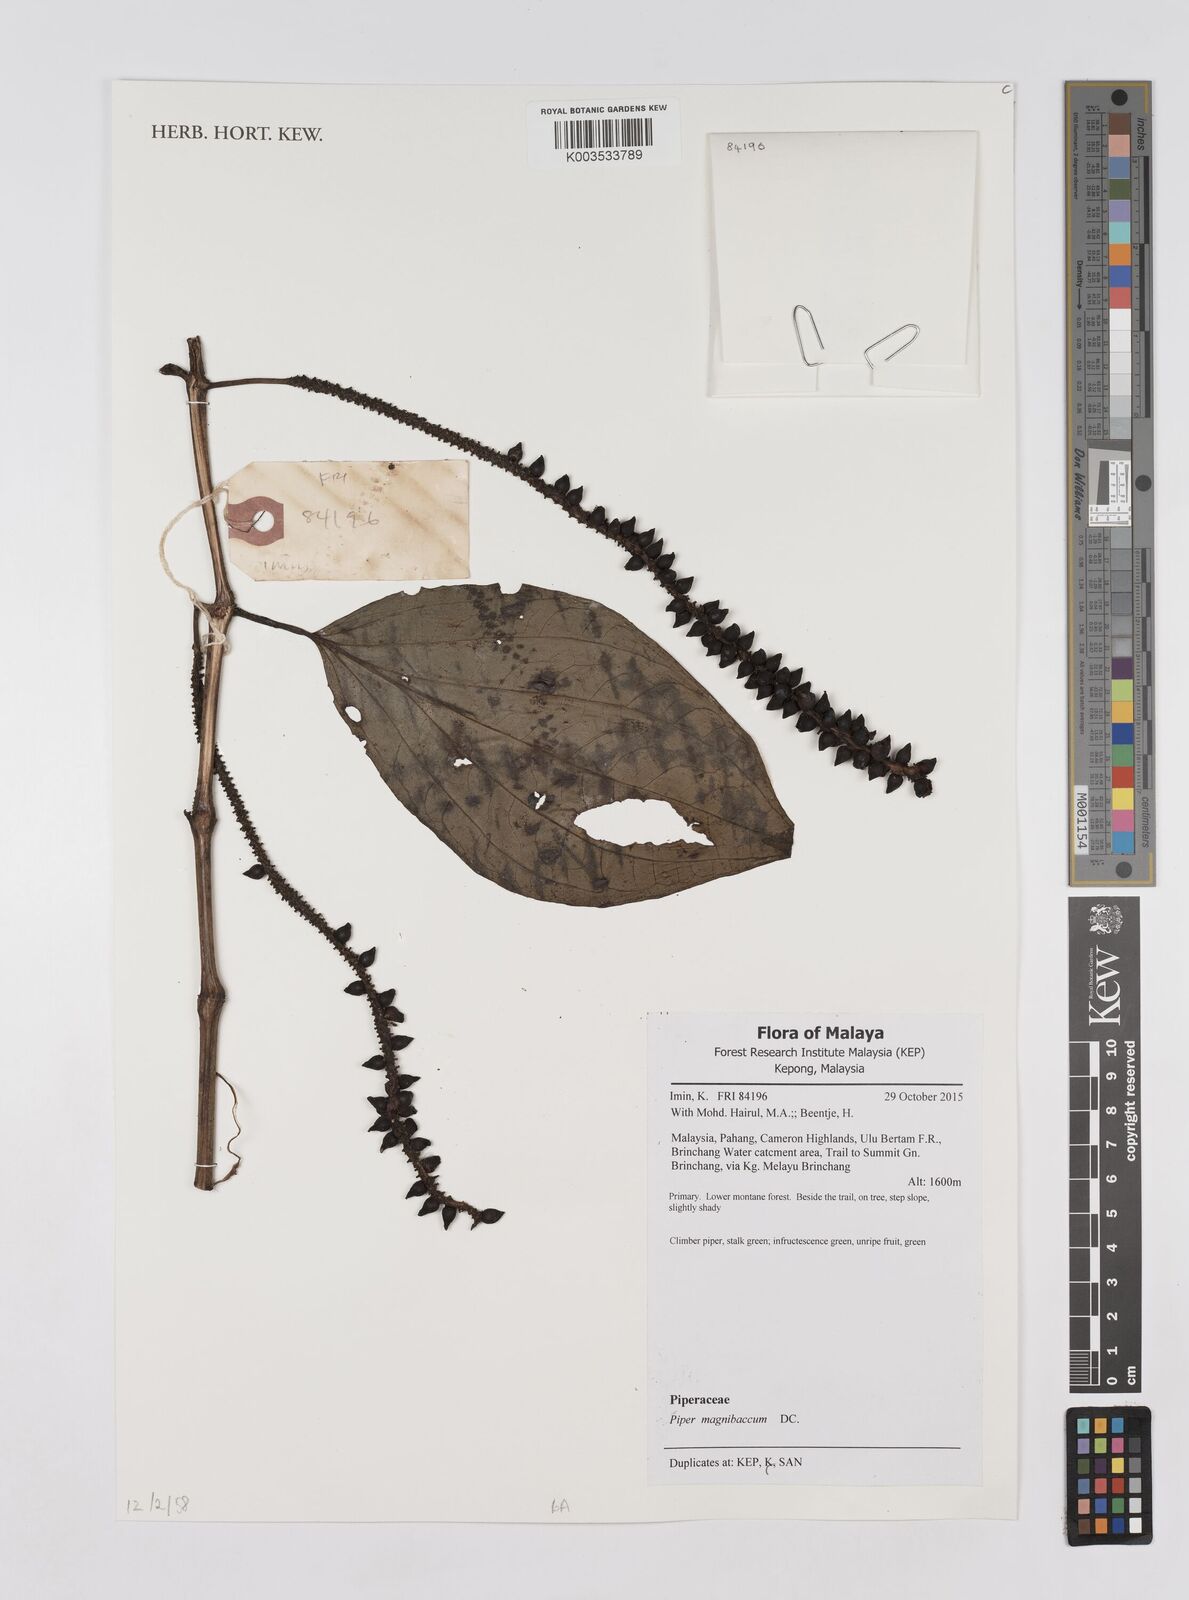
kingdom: Plantae
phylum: Tracheophyta
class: Magnoliopsida
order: Piperales
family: Piperaceae
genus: Piper
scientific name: Piper quinqueangulatum
